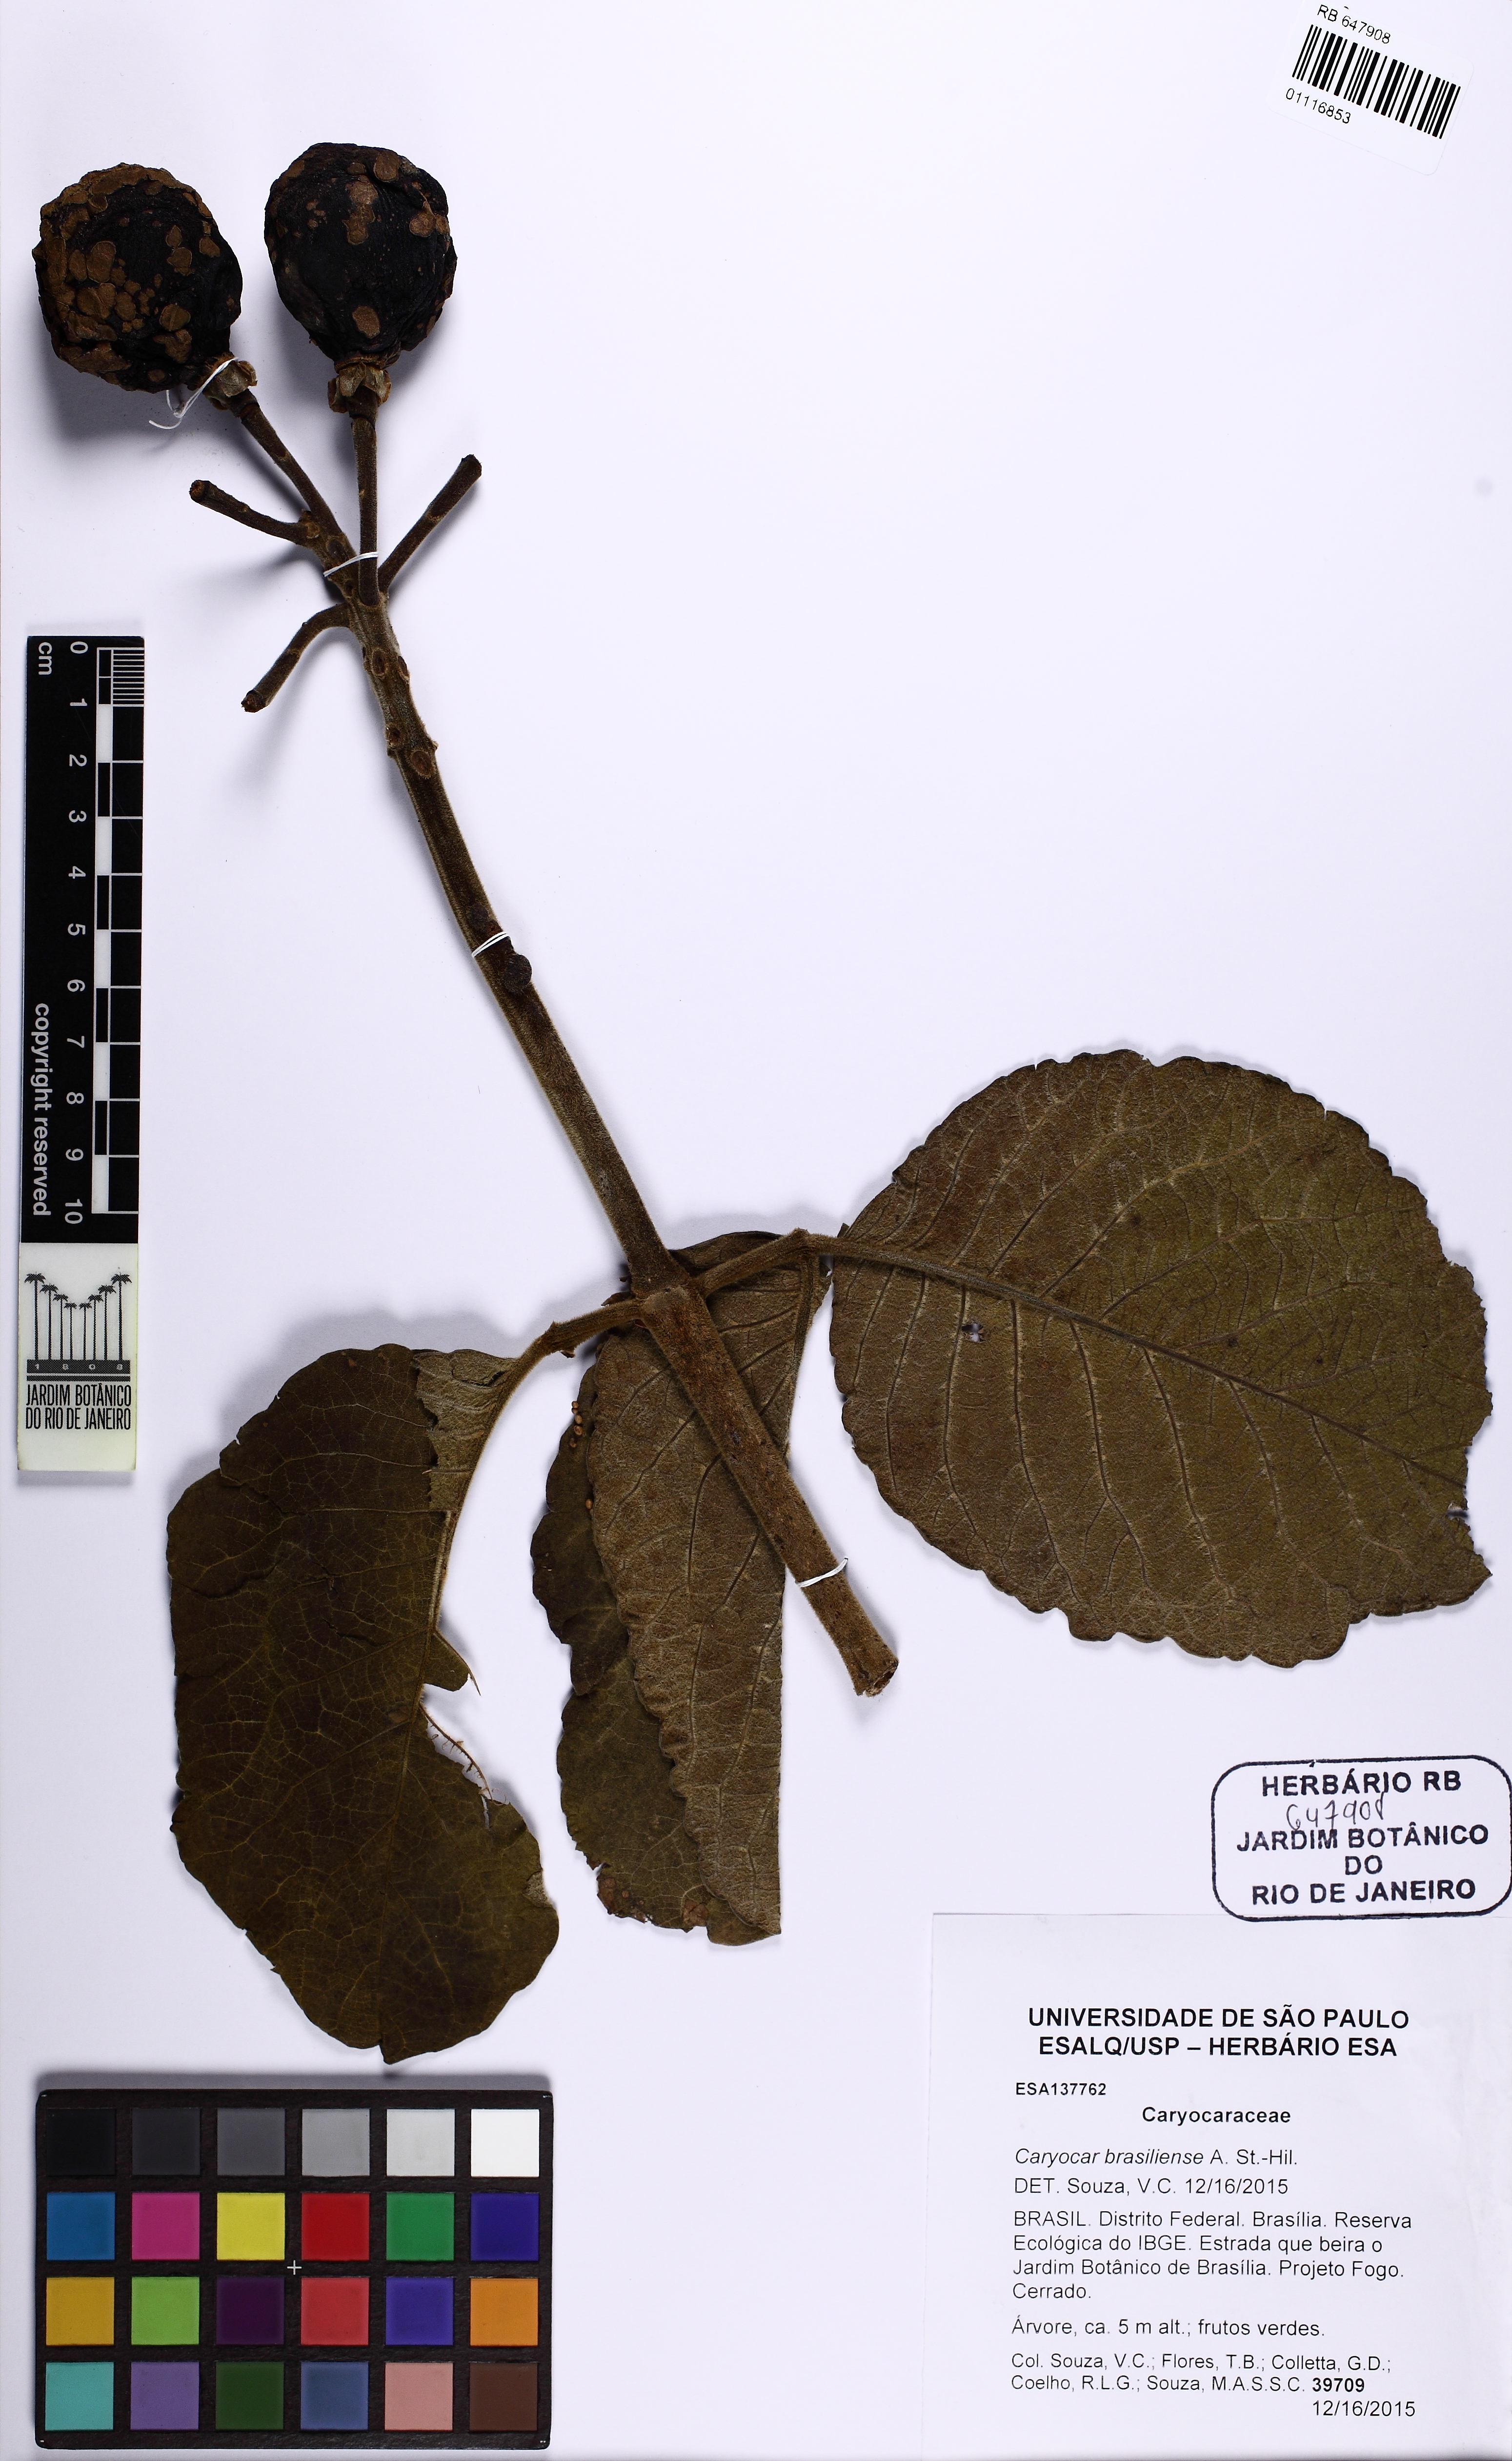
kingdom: Plantae
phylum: Tracheophyta
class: Magnoliopsida
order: Malpighiales
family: Caryocaraceae
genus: Caryocar
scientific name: Caryocar brasiliense
